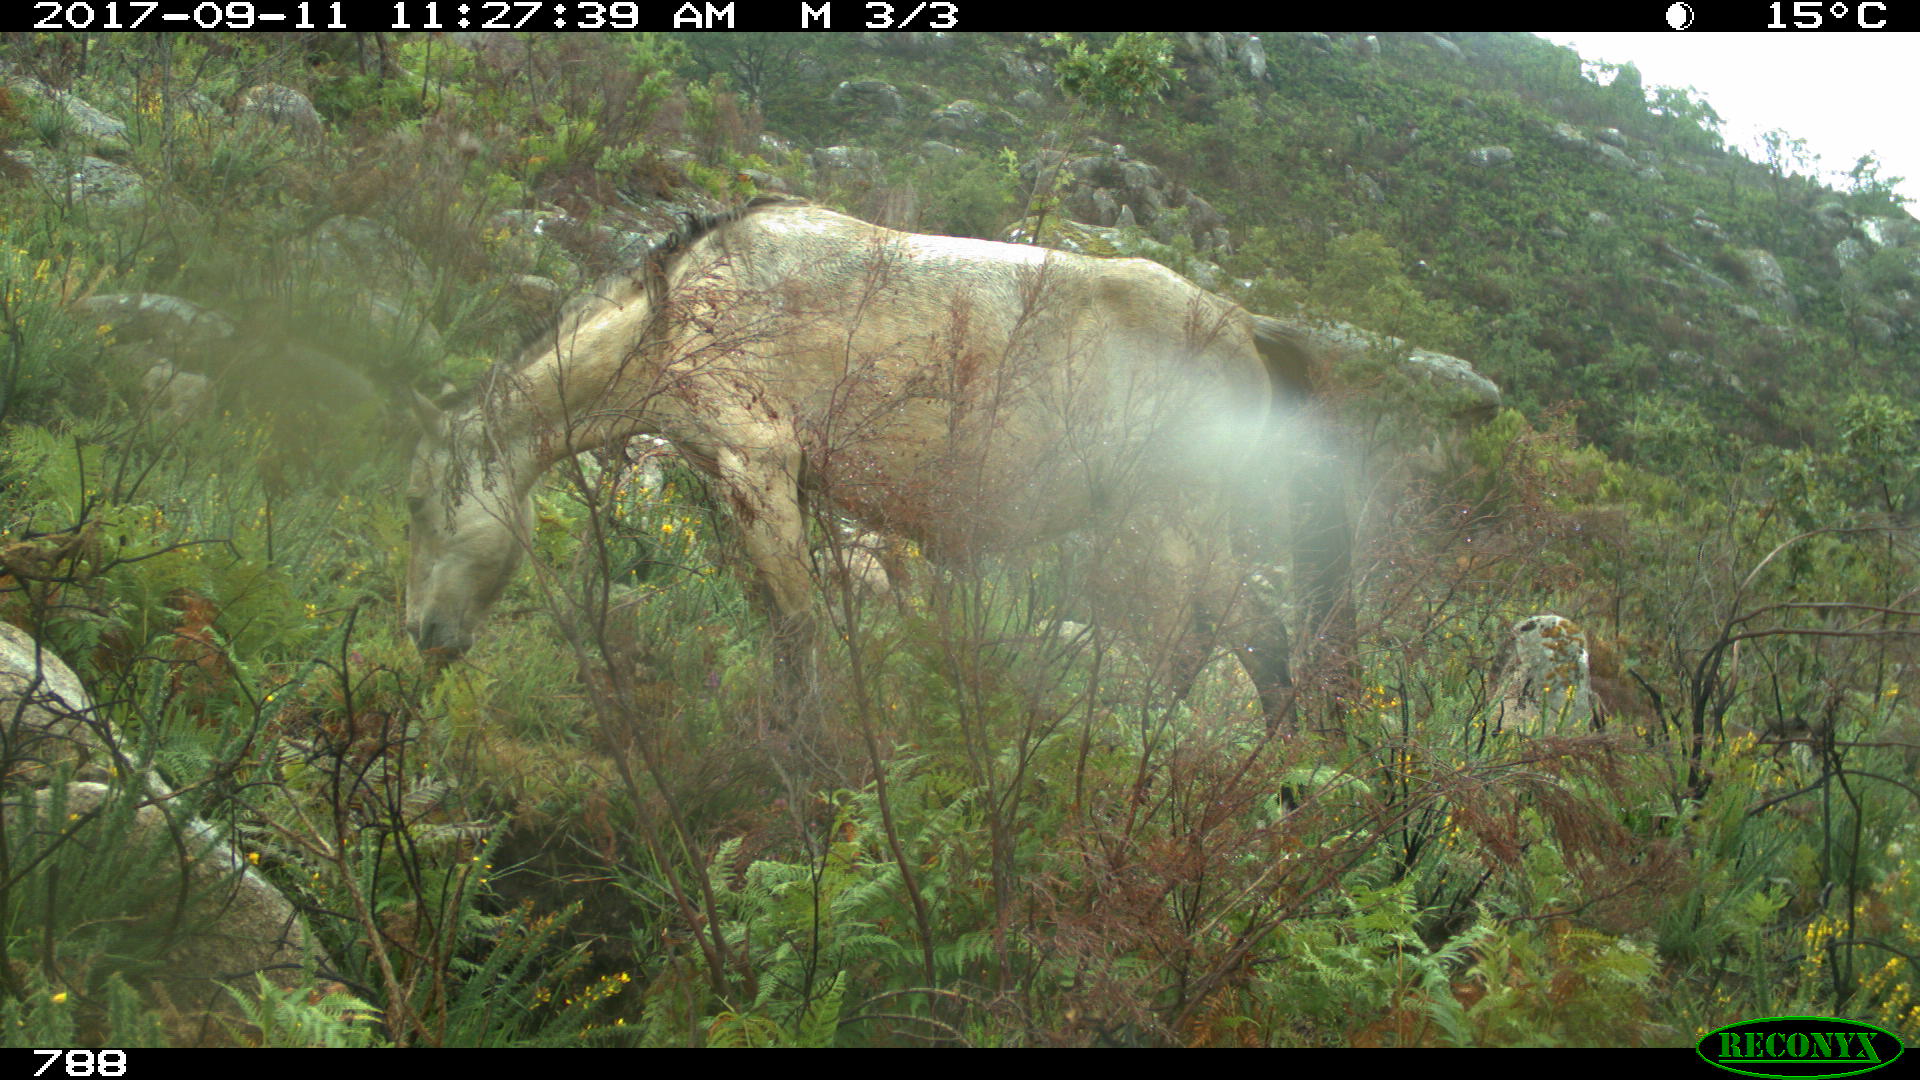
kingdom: Animalia
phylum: Chordata
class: Mammalia
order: Perissodactyla
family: Equidae
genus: Equus
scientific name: Equus caballus
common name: Horse
